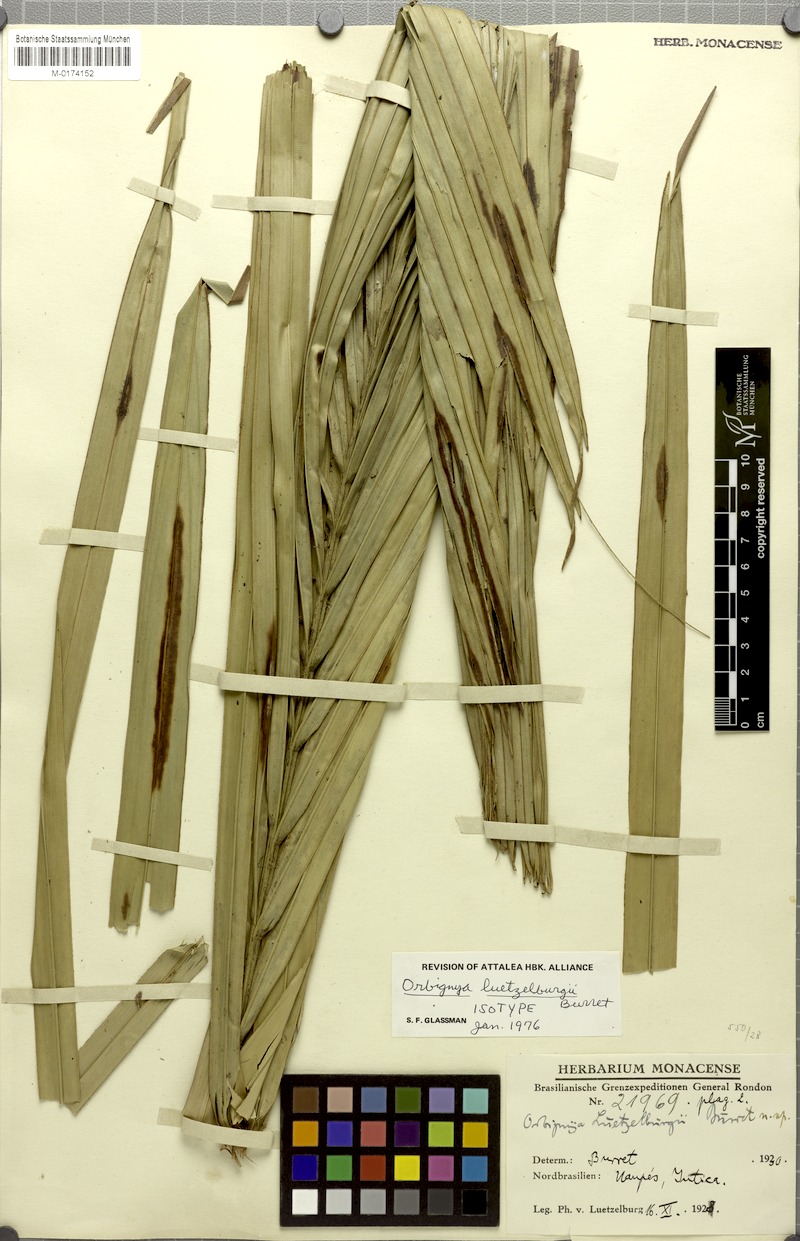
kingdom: Plantae
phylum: Tracheophyta
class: Liliopsida
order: Arecales
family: Arecaceae
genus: Attalea
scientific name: Attalea luetzelburgii
